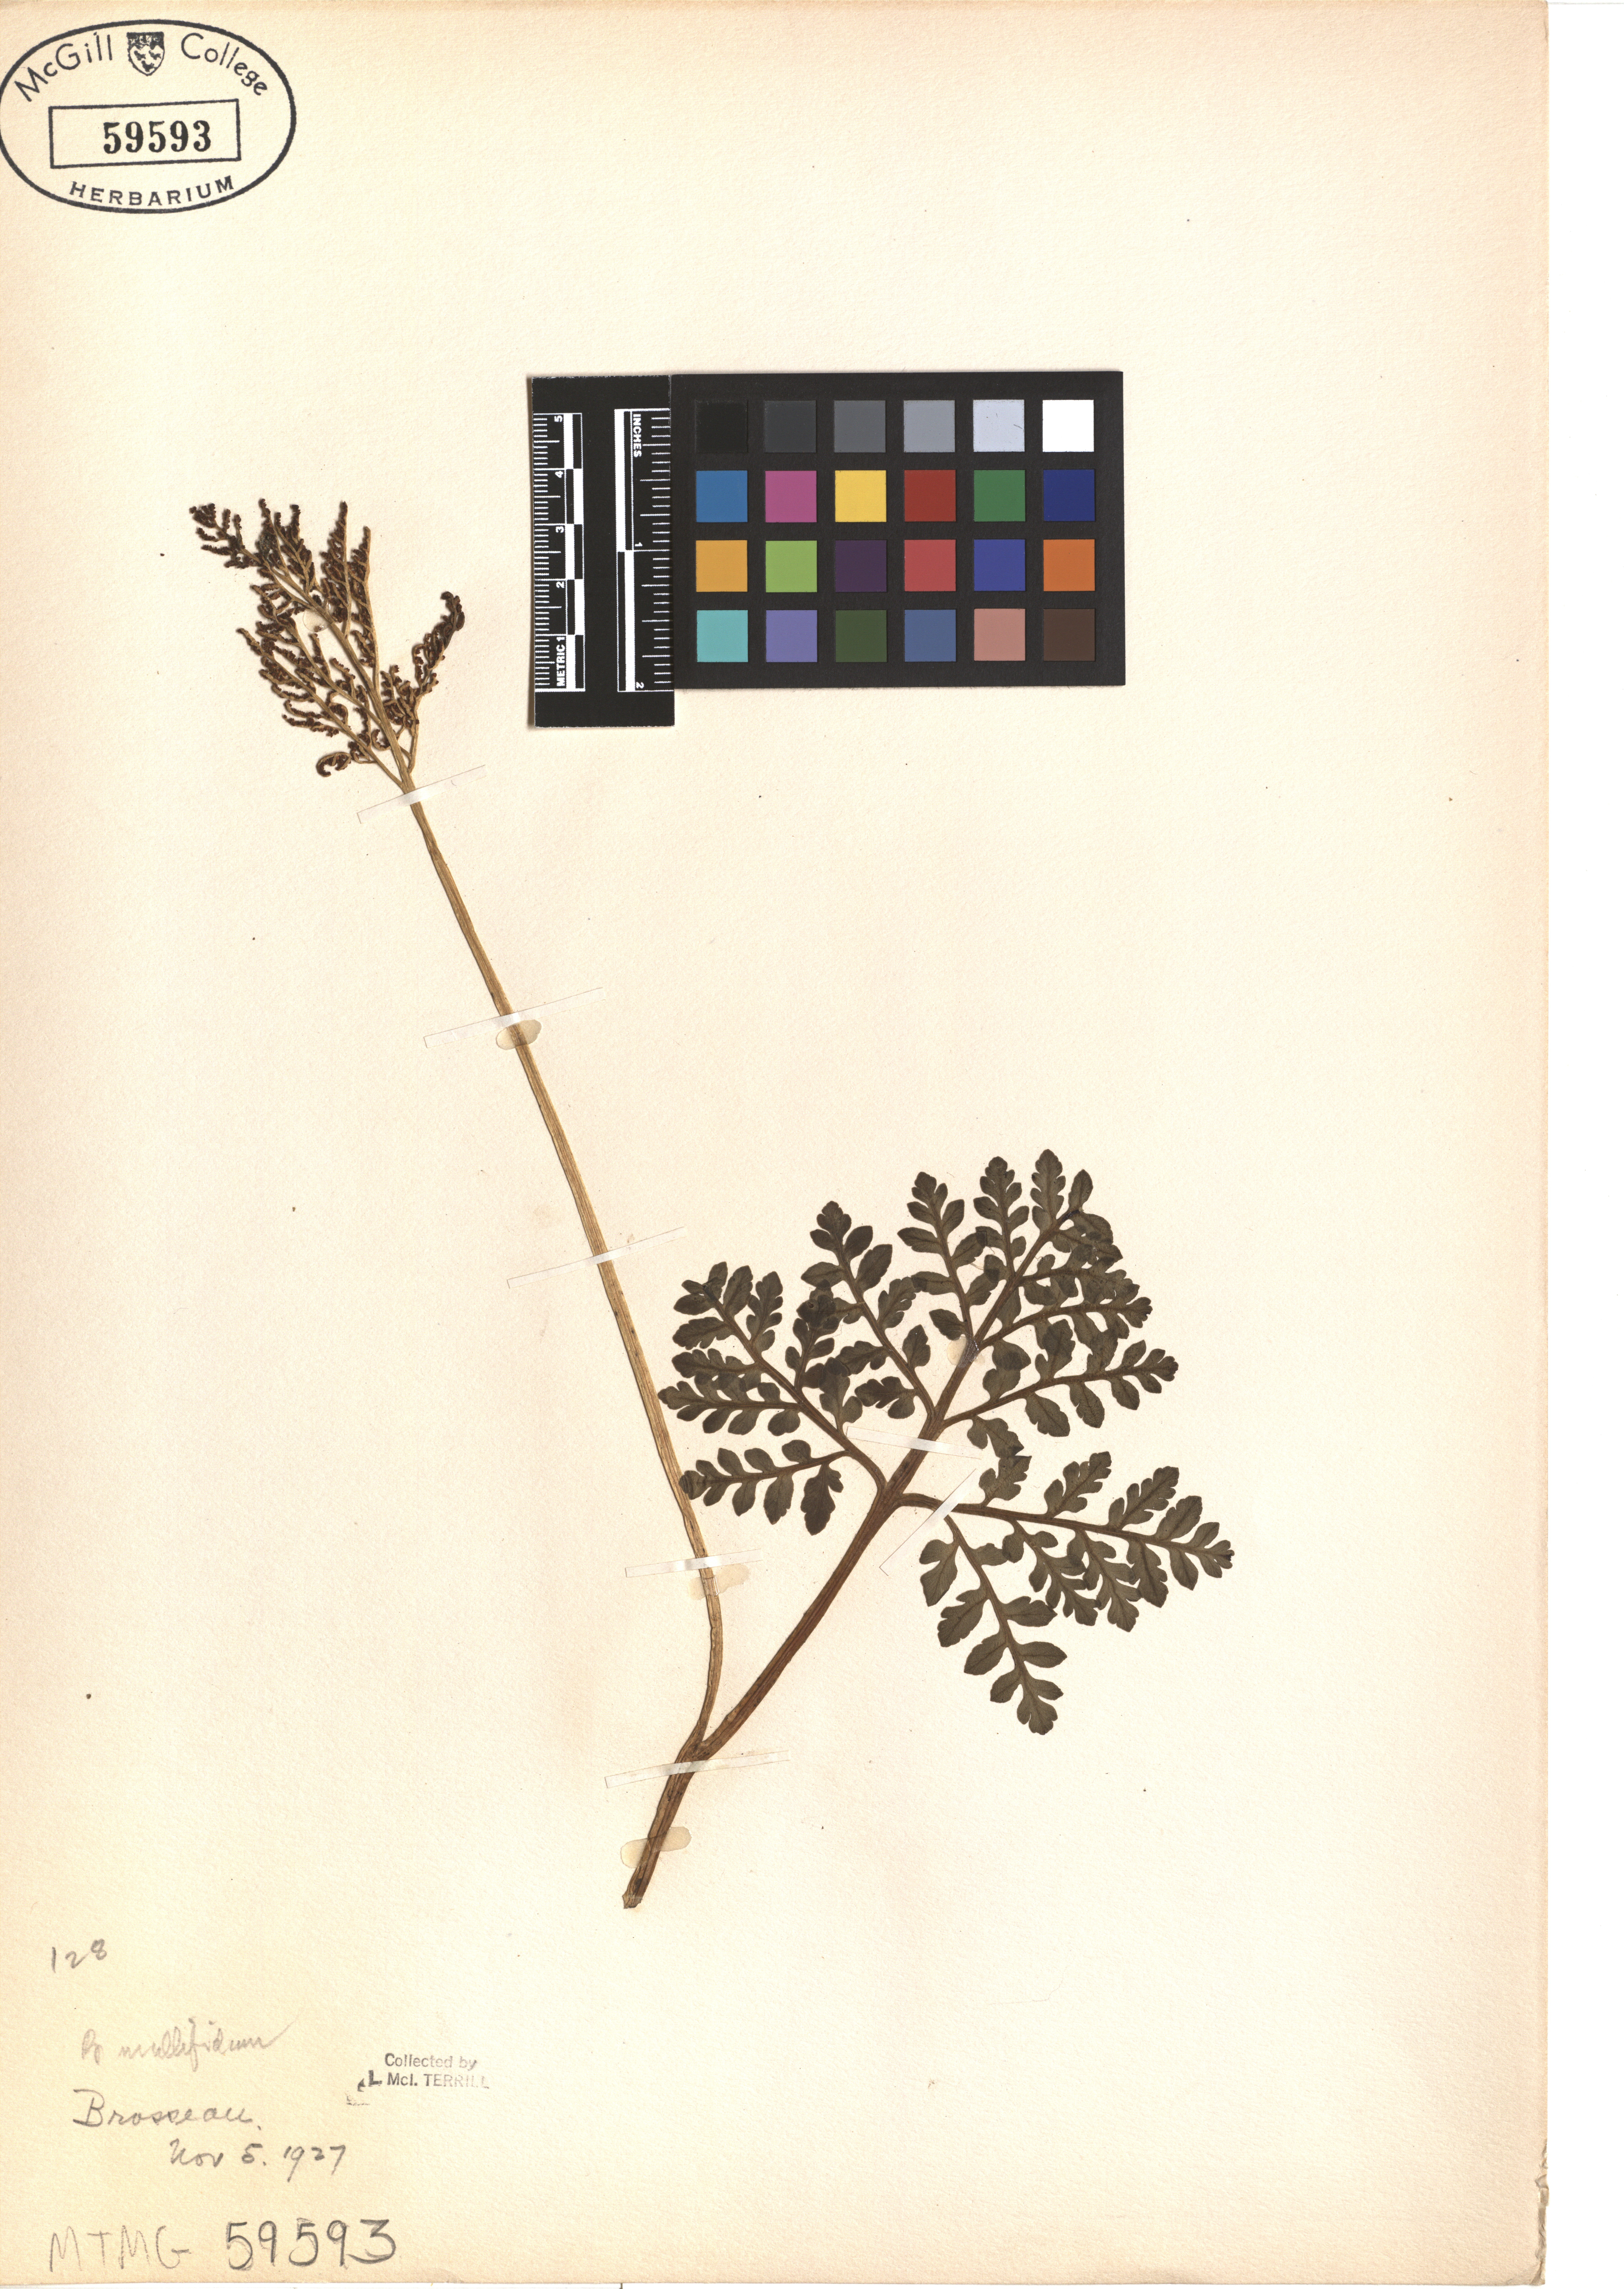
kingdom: Plantae
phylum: Tracheophyta
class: Polypodiopsida
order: Ophioglossales
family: Ophioglossaceae
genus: Sceptridium
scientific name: Sceptridium multifidum
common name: Leathery grape fern
